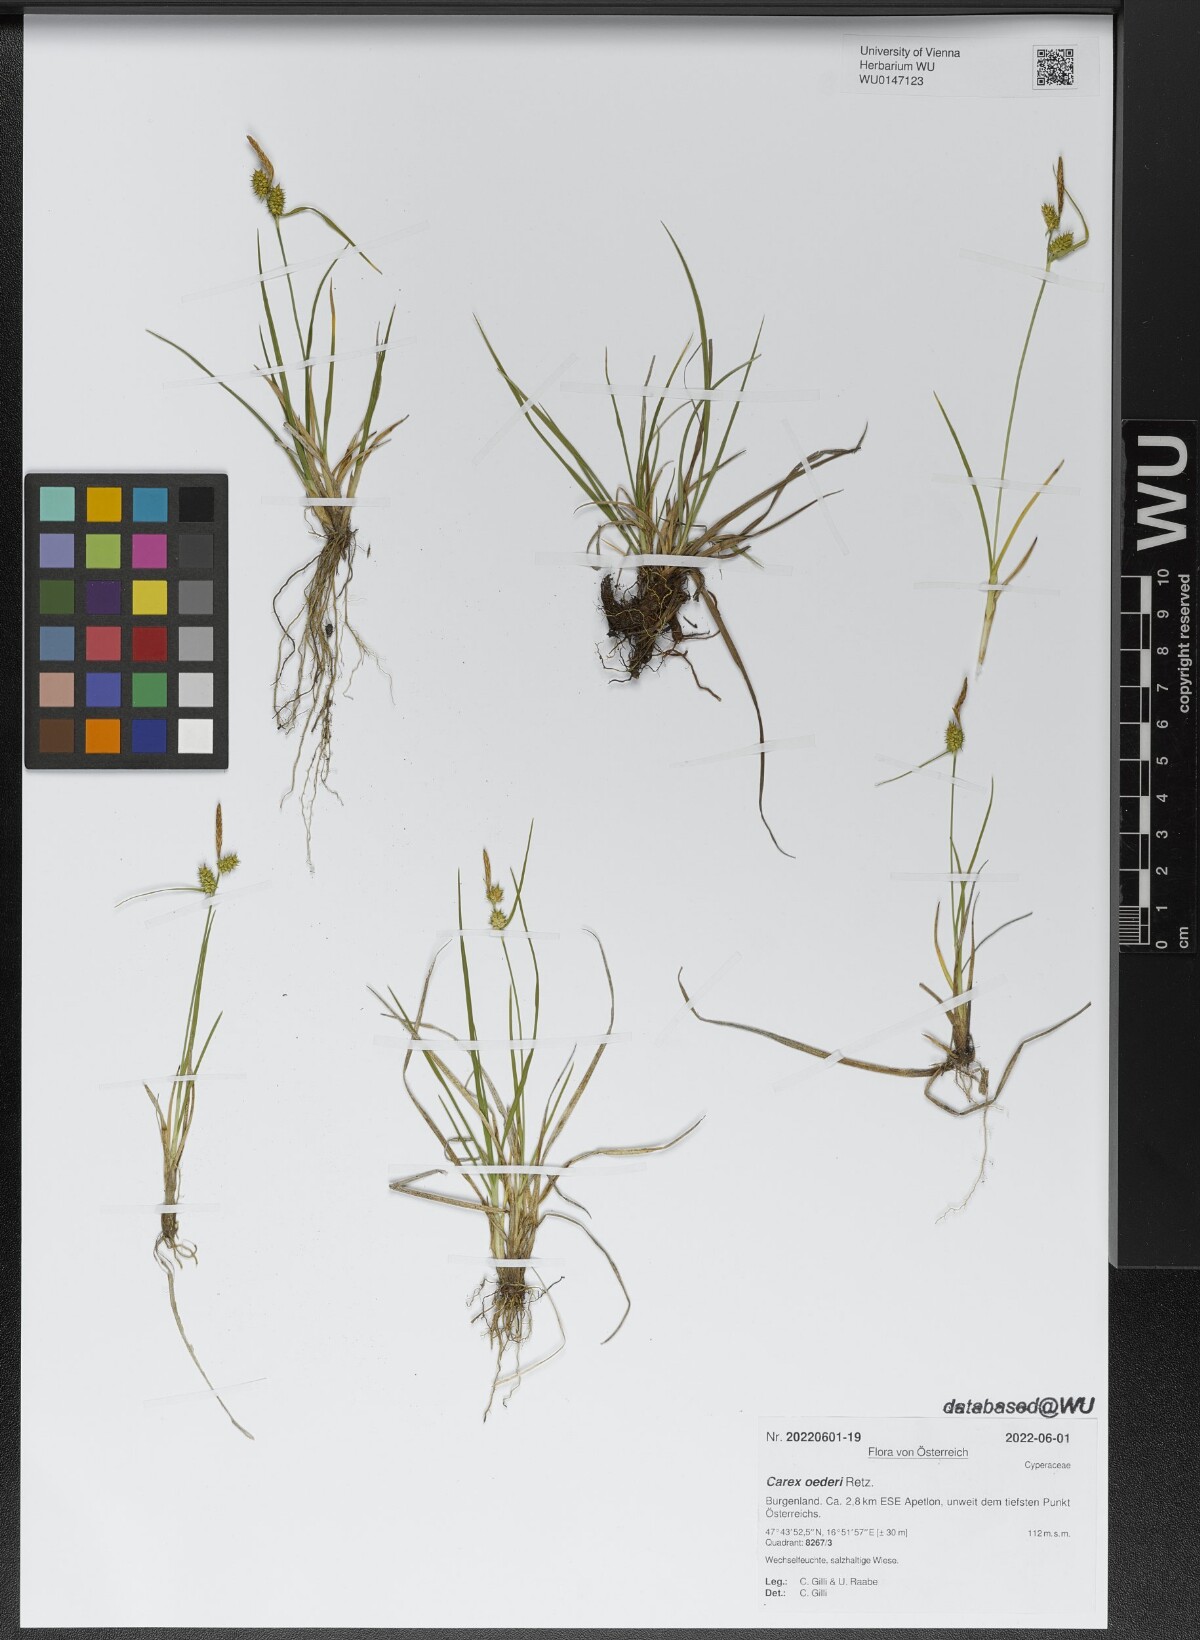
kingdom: Plantae
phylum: Tracheophyta
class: Liliopsida
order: Poales
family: Cyperaceae
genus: Carex
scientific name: Carex oederi
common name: Common & small-fruited yellow-sedge
